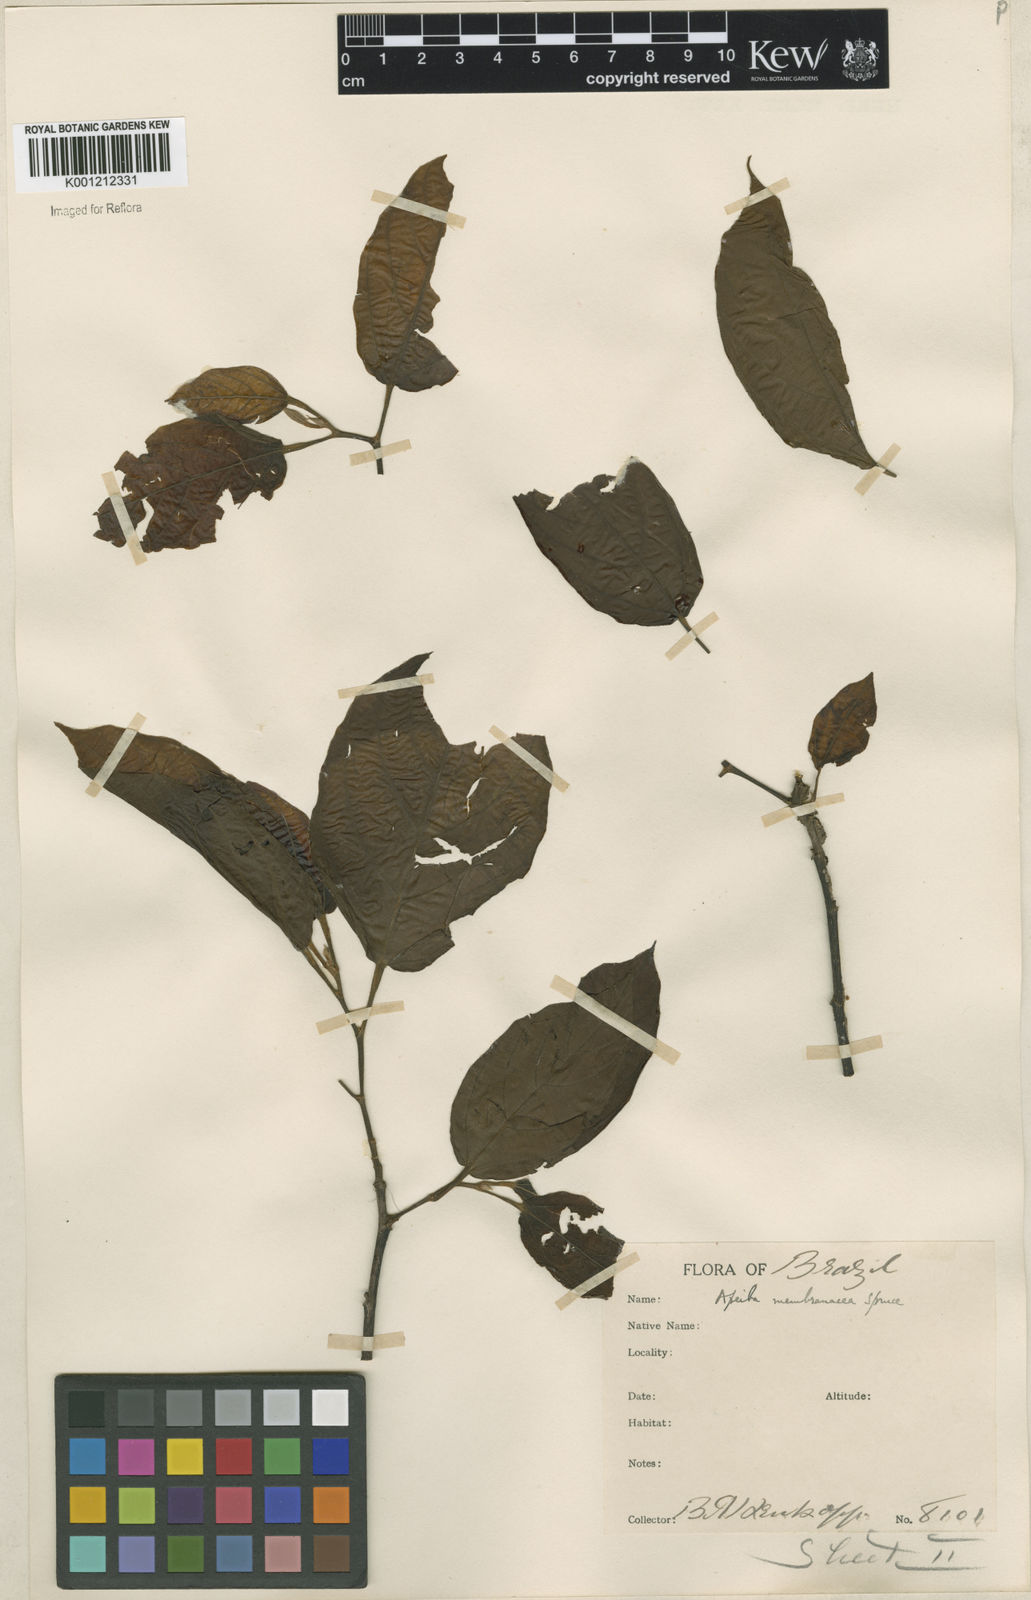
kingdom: Plantae
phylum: Tracheophyta
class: Magnoliopsida
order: Malvales
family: Malvaceae
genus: Apeiba
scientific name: Apeiba membranacea
